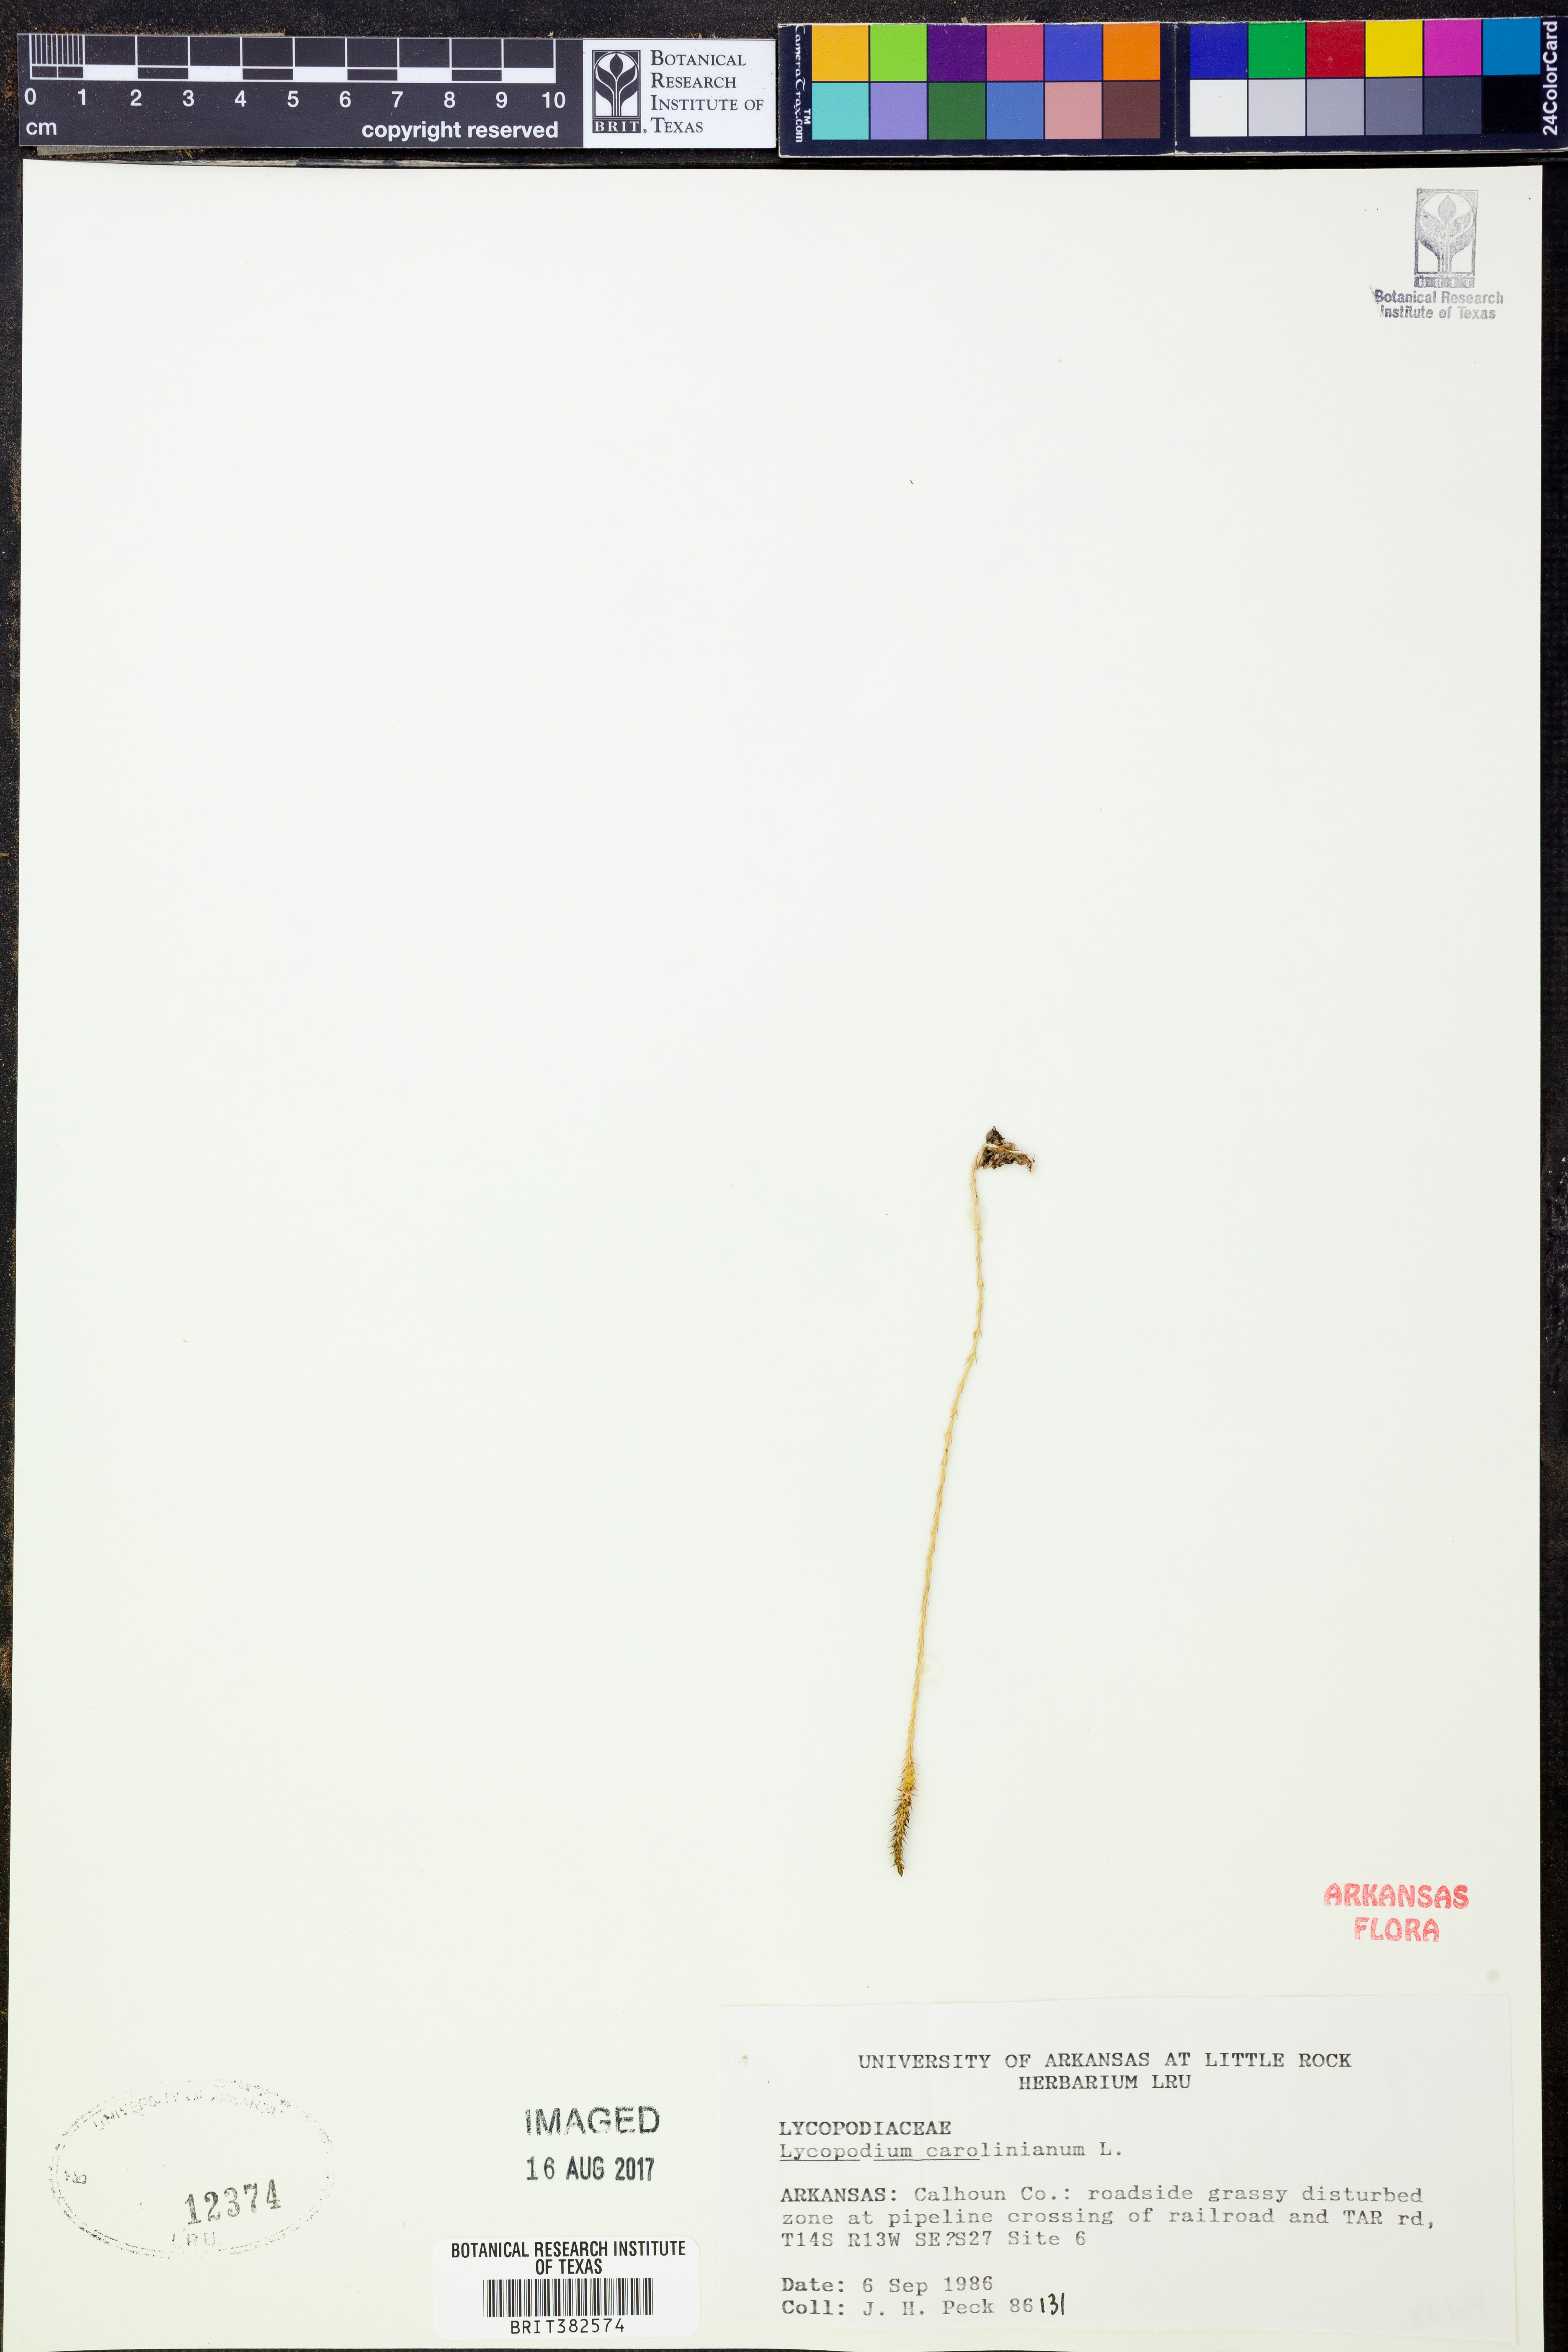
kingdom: Plantae
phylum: Tracheophyta
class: Lycopodiopsida
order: Lycopodiales
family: Lycopodiaceae
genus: Pseudolycopodiella
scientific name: Pseudolycopodiella caroliniana
